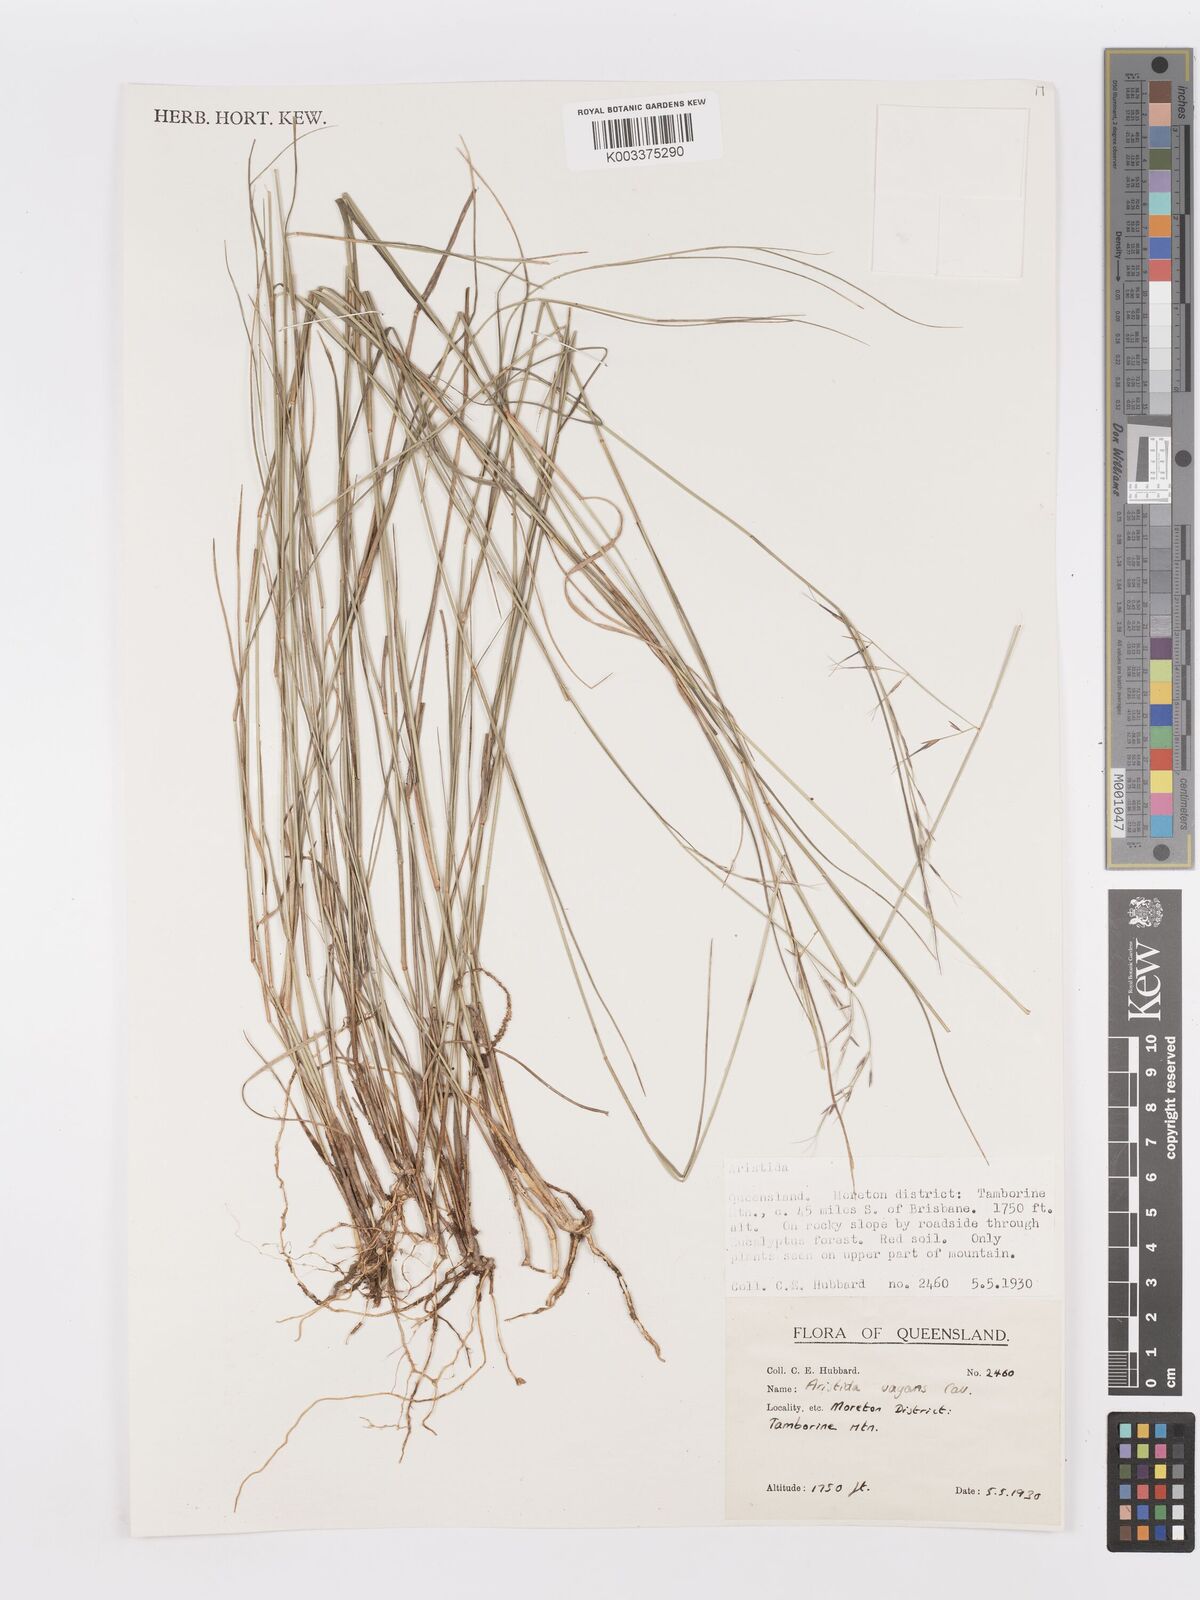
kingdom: Plantae
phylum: Tracheophyta
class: Liliopsida
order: Poales
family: Poaceae
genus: Aristida
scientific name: Aristida vagans
